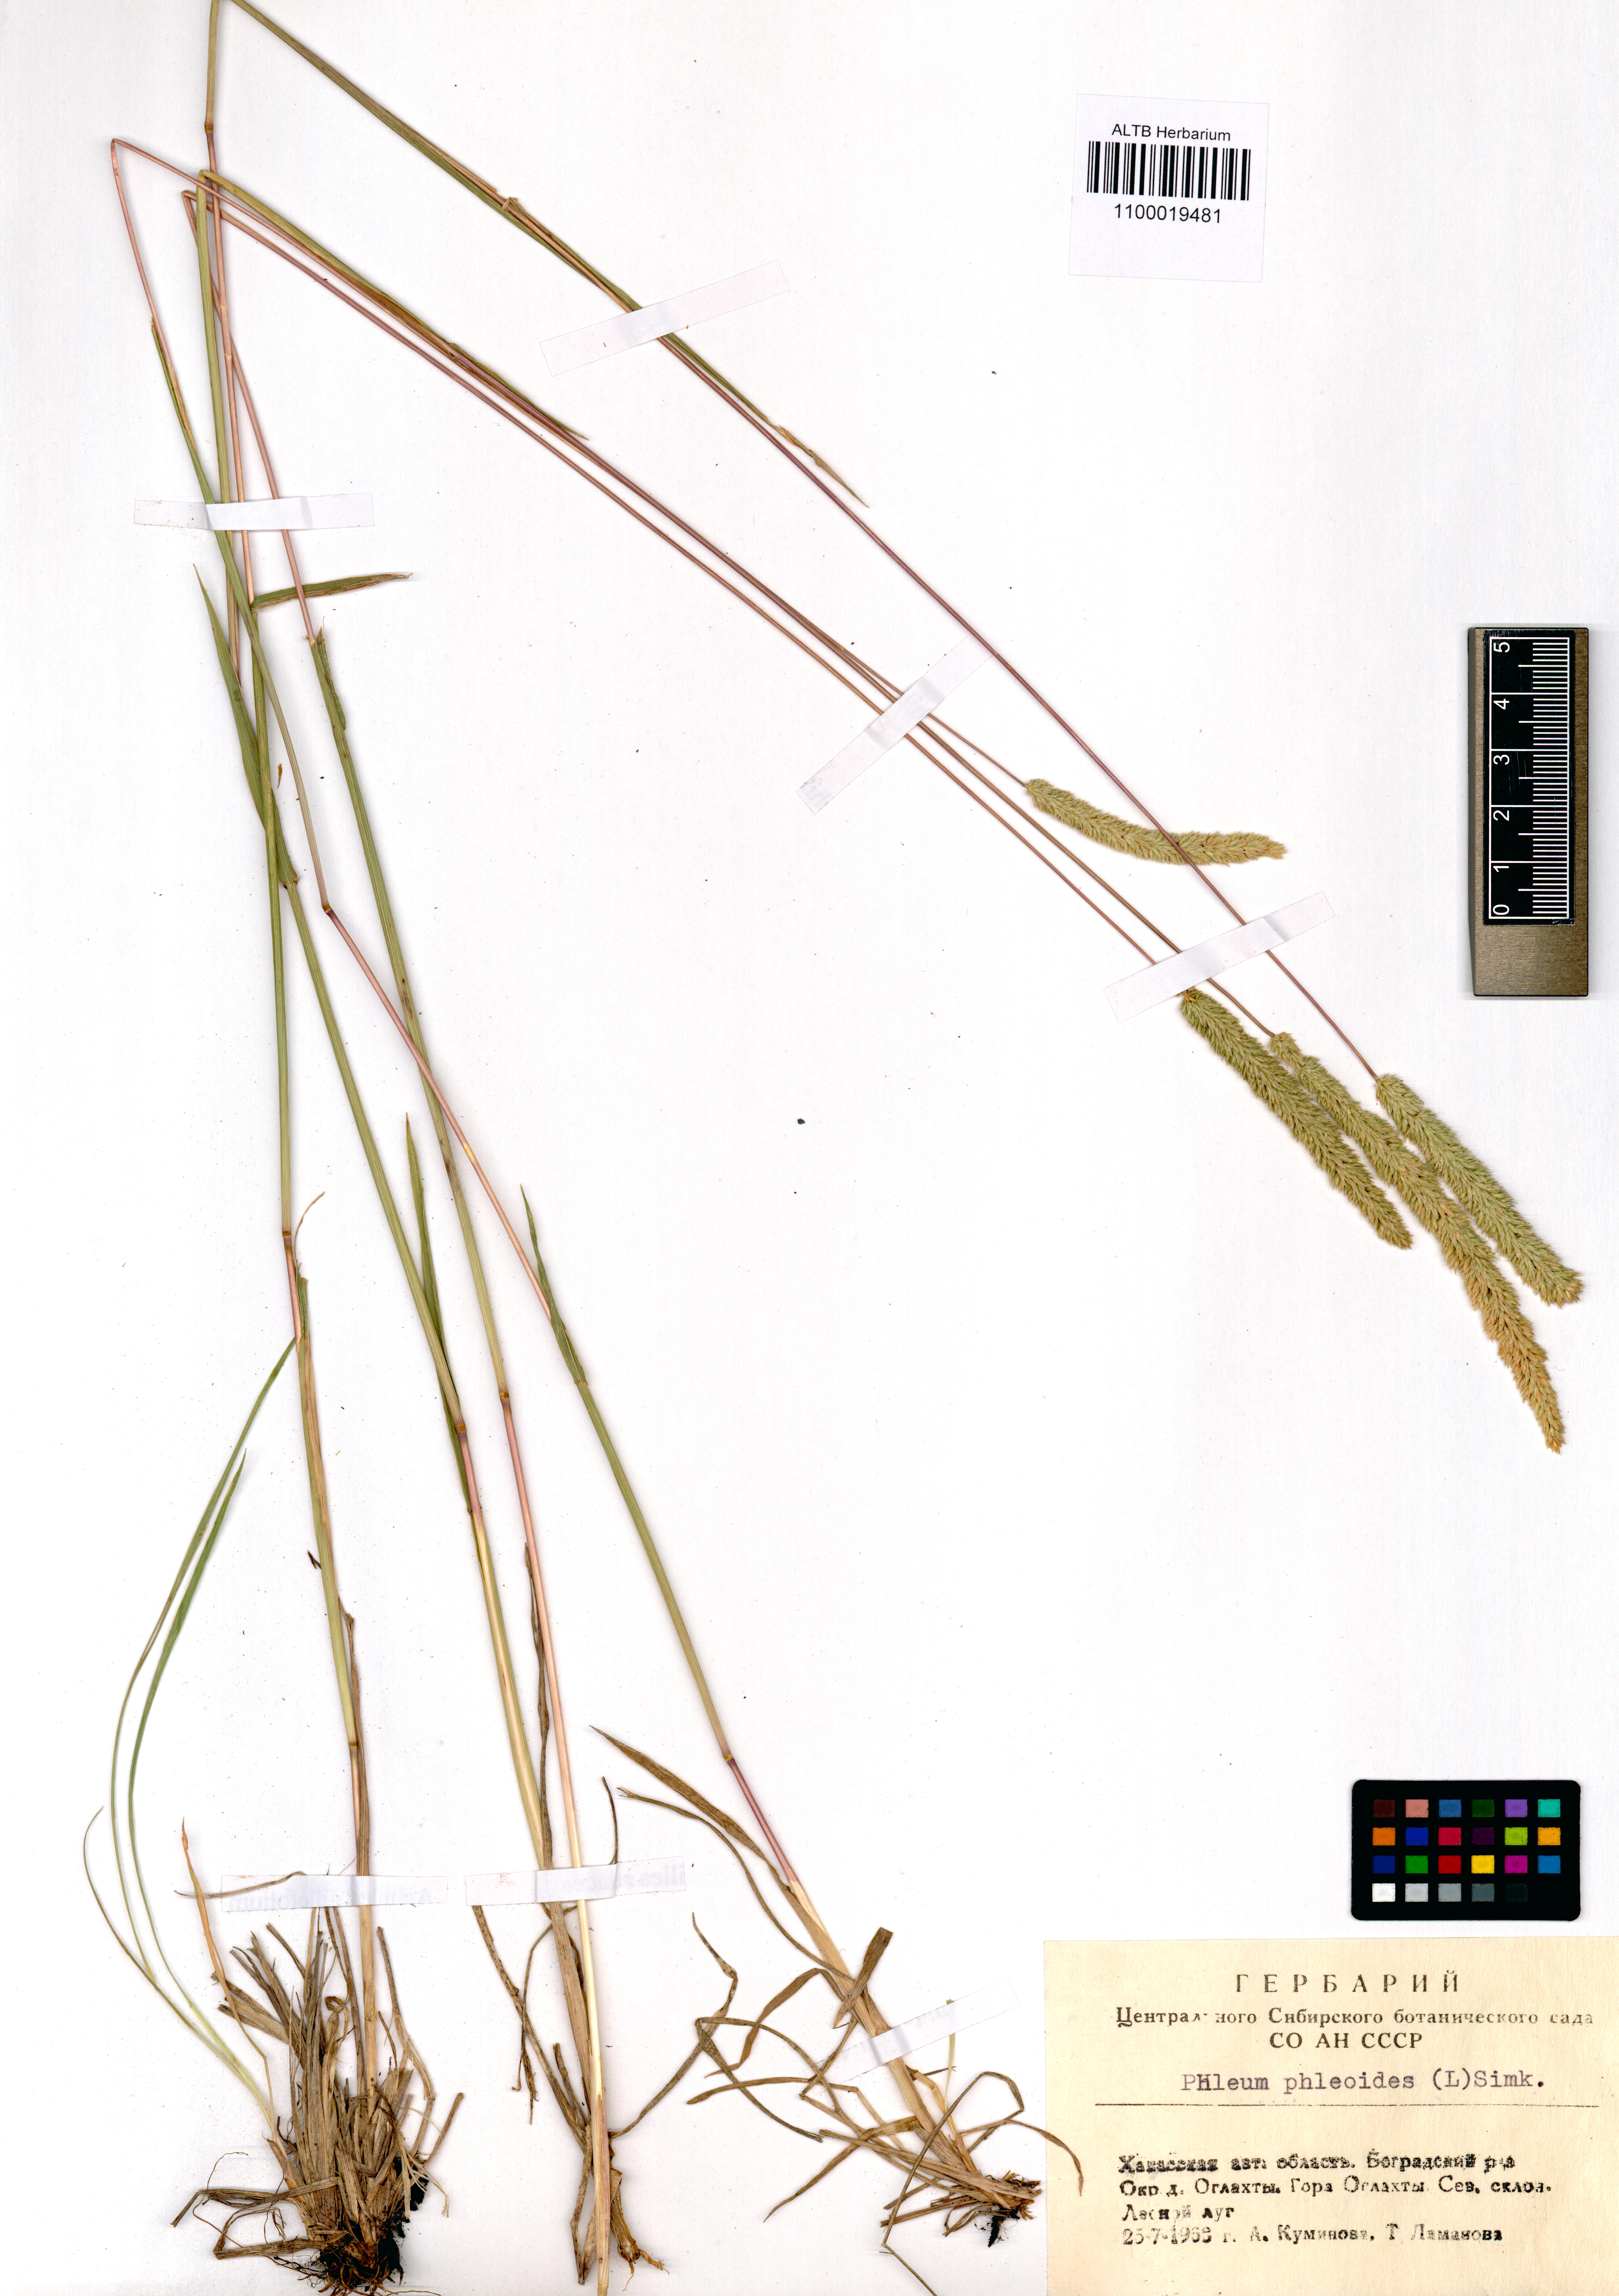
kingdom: Plantae
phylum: Tracheophyta
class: Liliopsida
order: Poales
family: Poaceae
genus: Phleum
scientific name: Phleum phleoides
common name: Purple-stem cat's-tail
